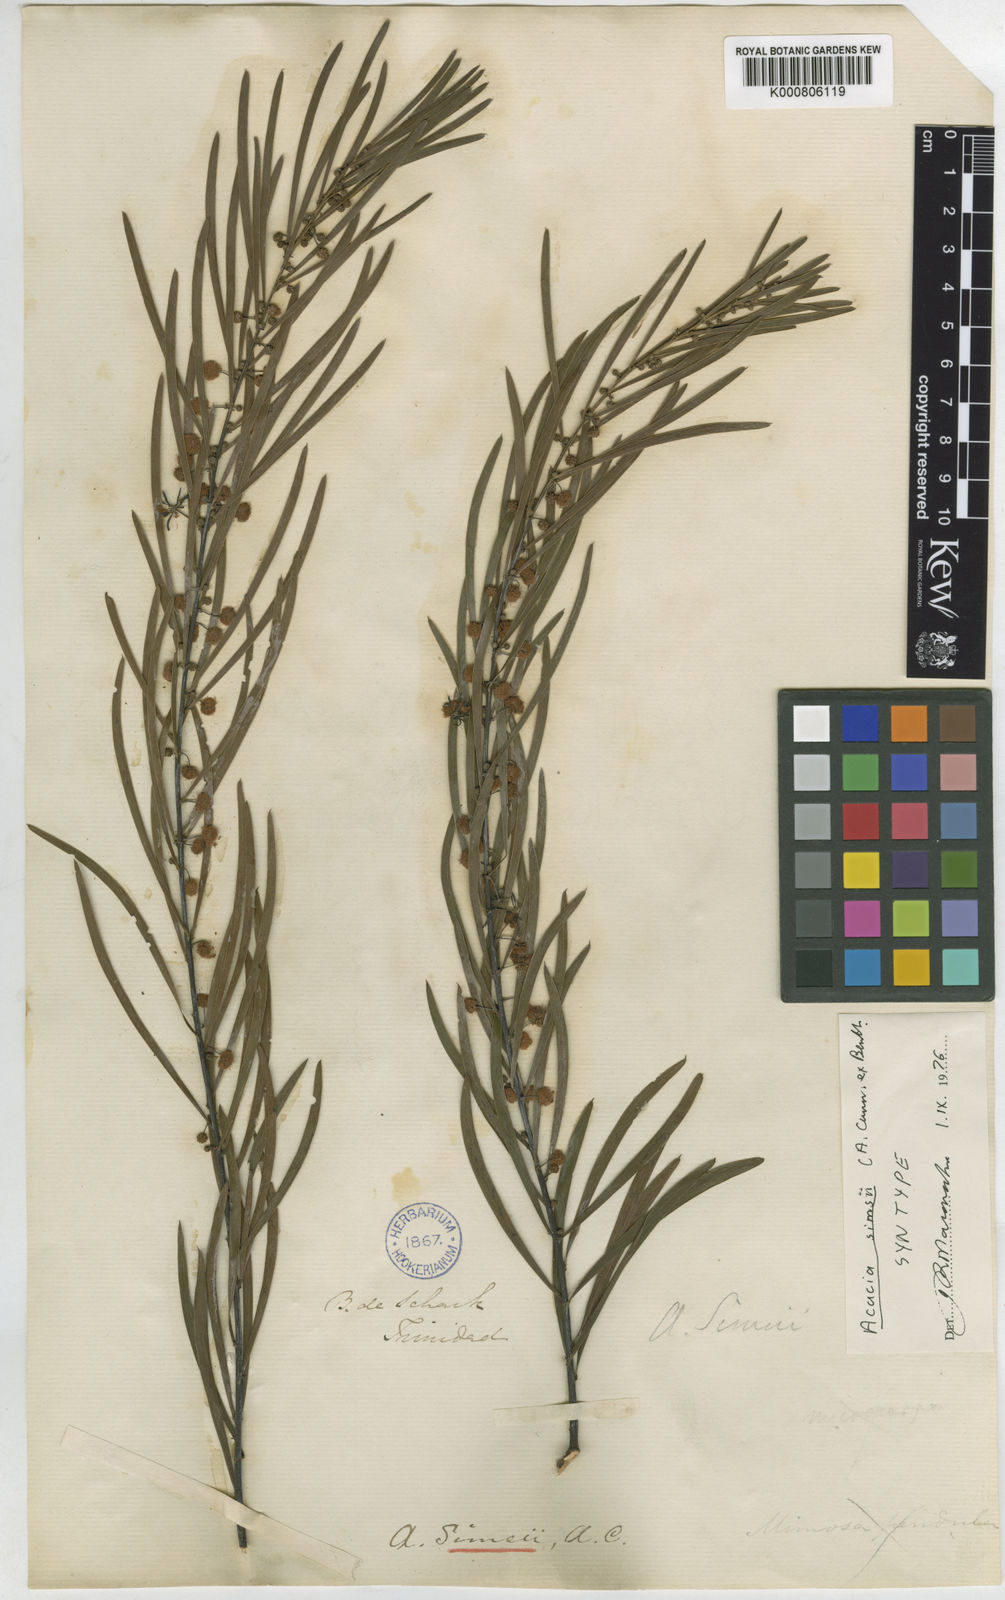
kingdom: Plantae
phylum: Tracheophyta
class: Magnoliopsida
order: Fabales
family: Fabaceae
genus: Acacia
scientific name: Acacia simsii
